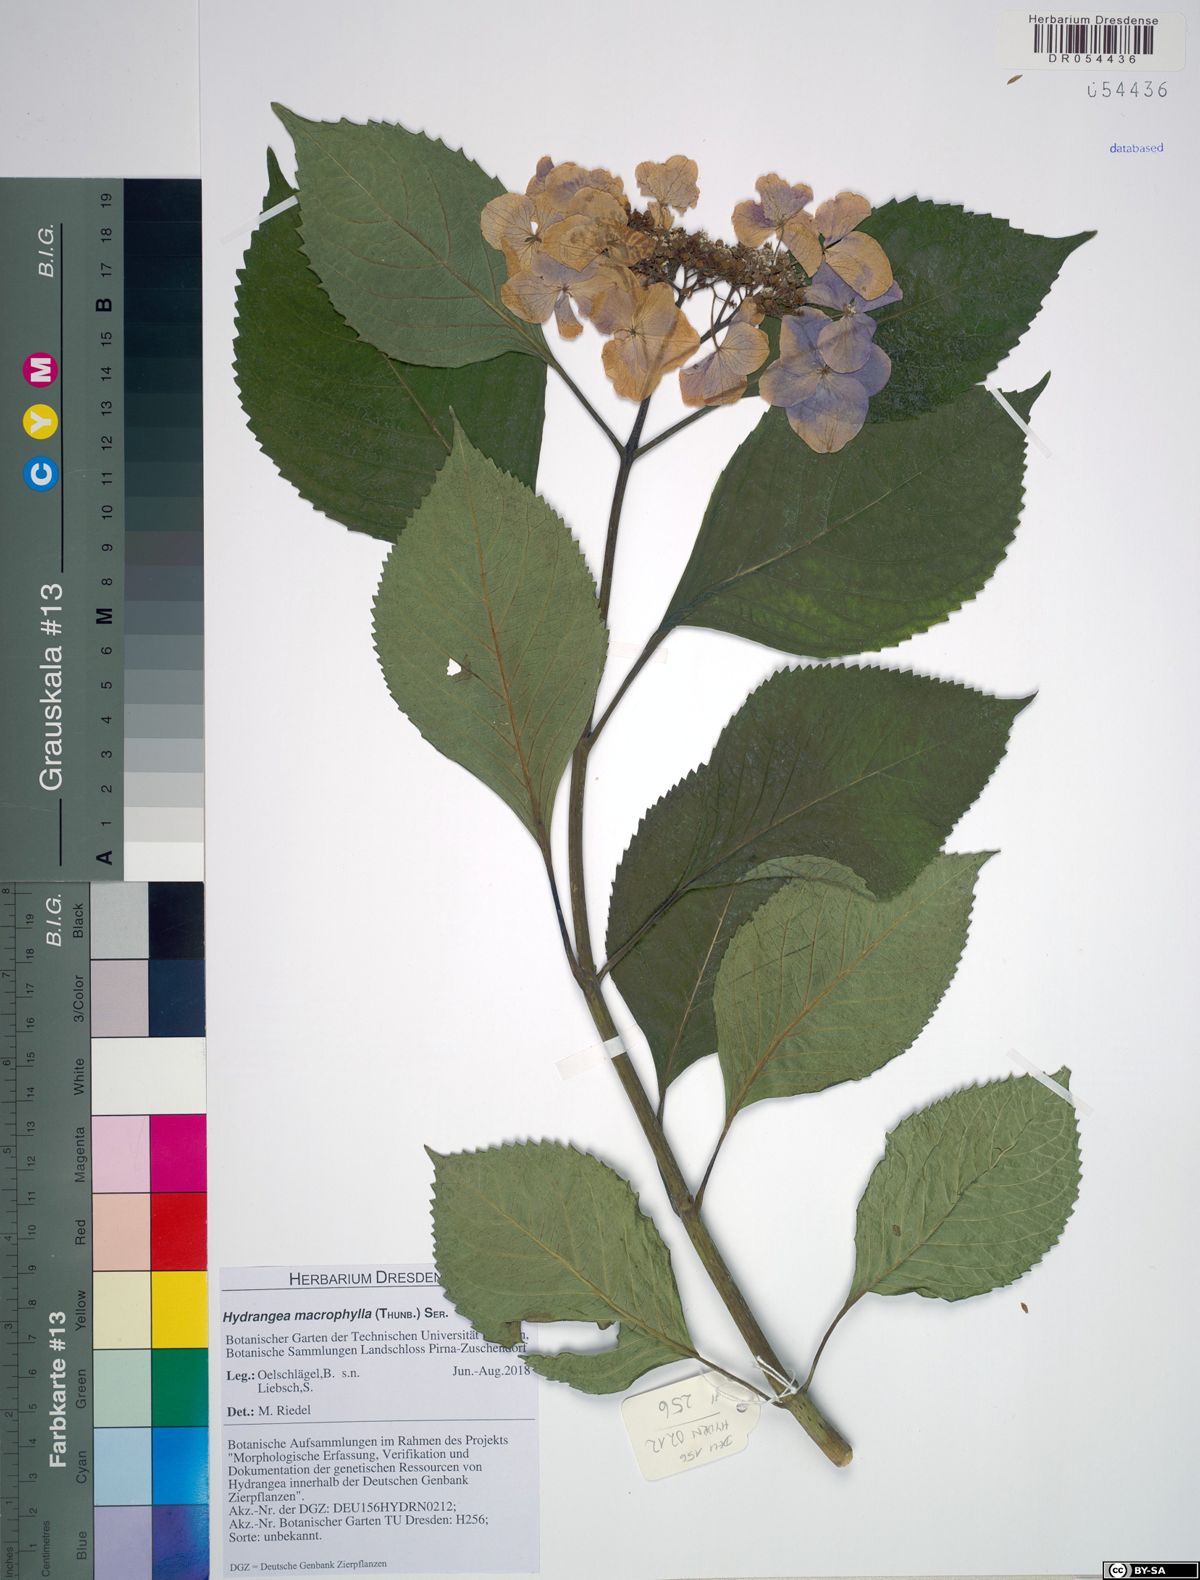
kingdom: Plantae
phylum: Tracheophyta
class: Magnoliopsida
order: Cornales
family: Hydrangeaceae
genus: Hydrangea
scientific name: Hydrangea macrophylla
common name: Hydrangea
